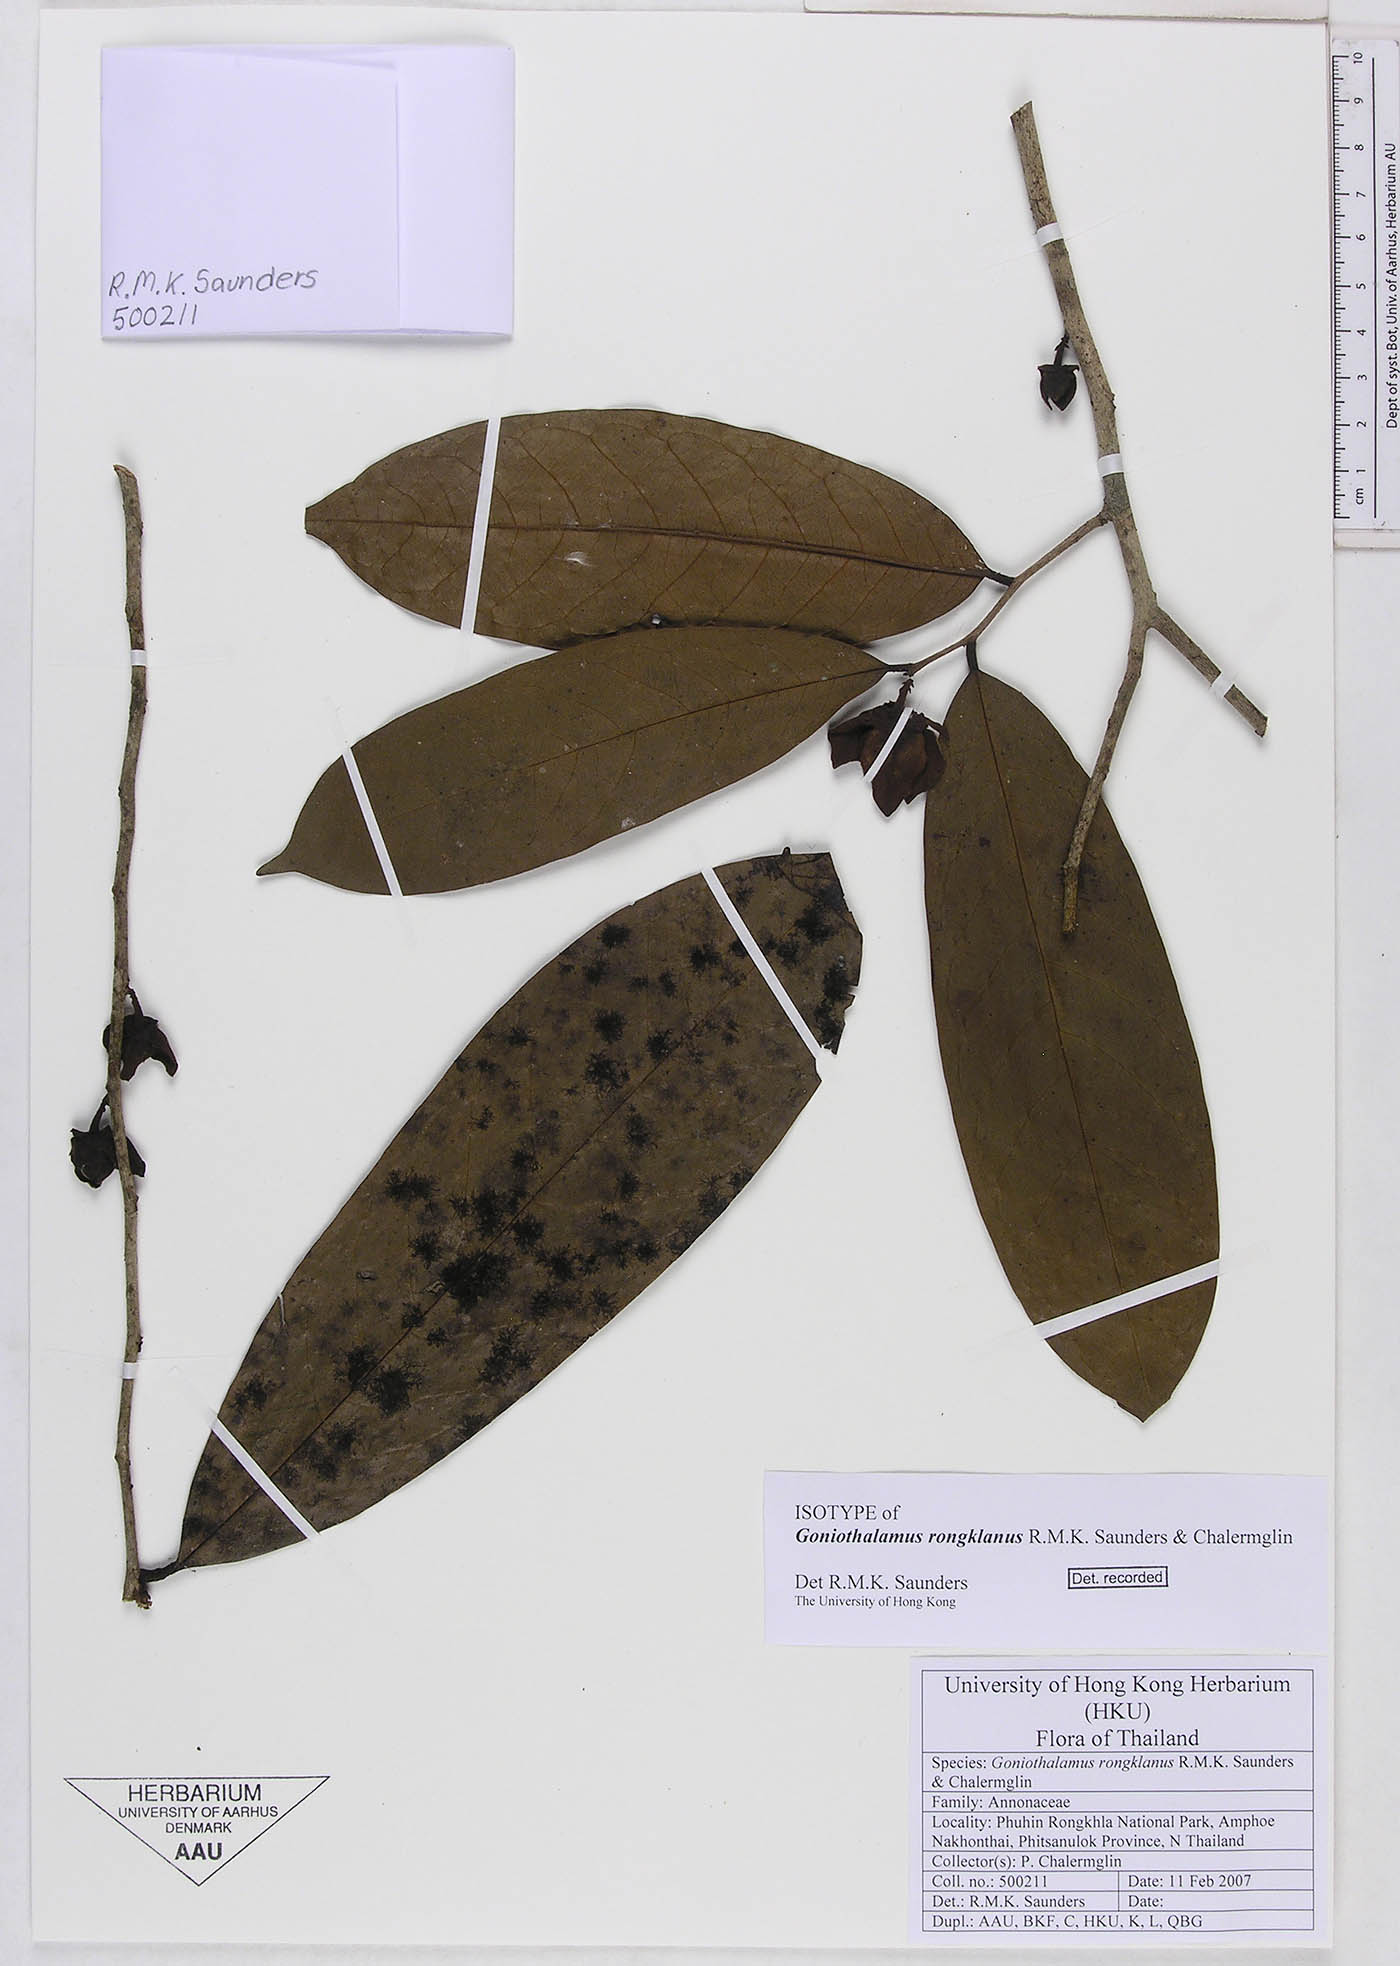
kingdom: Plantae
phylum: Tracheophyta
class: Magnoliopsida
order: Magnoliales
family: Annonaceae
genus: Goniothalamus
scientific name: Goniothalamus rongklanus
